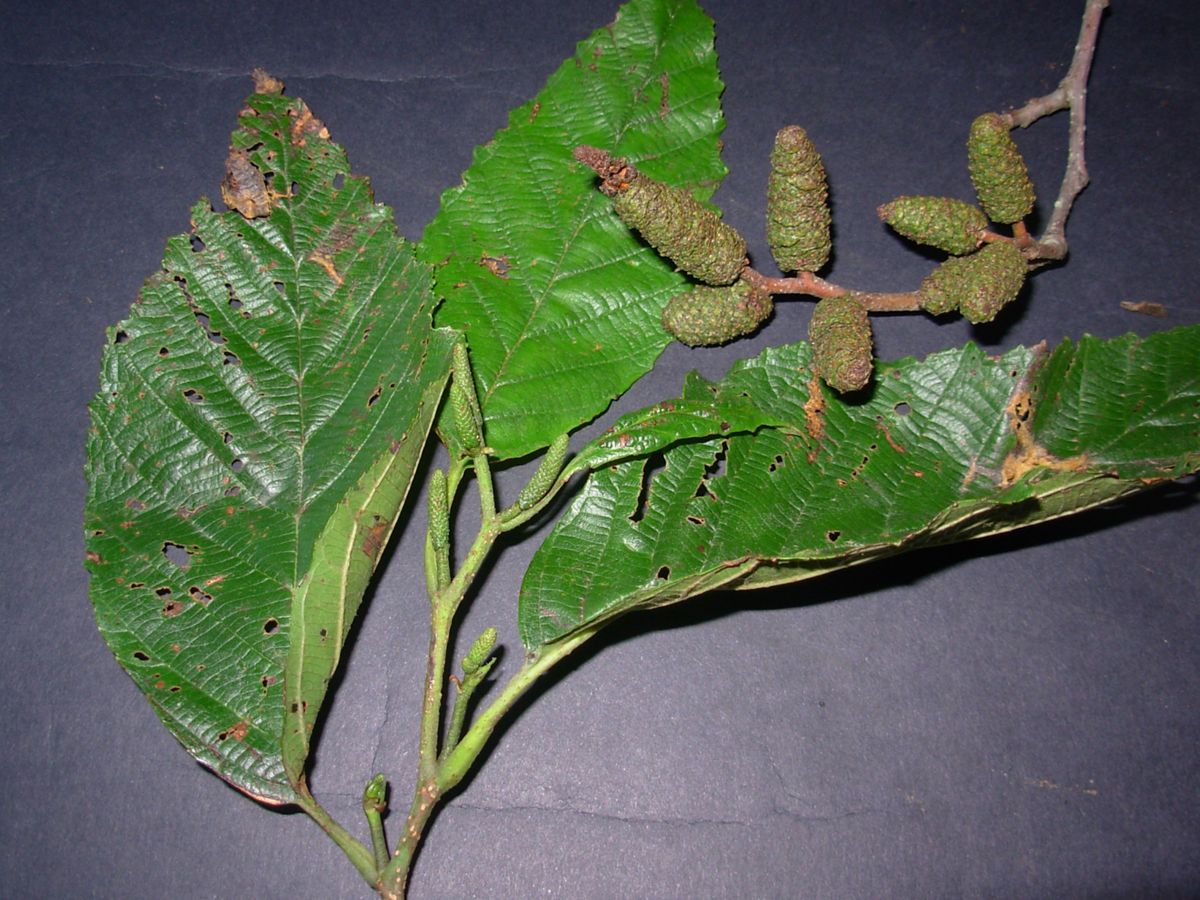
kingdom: Plantae
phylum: Tracheophyta
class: Magnoliopsida
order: Fagales
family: Betulaceae
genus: Alnus
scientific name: Alnus acuminata
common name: Alder
